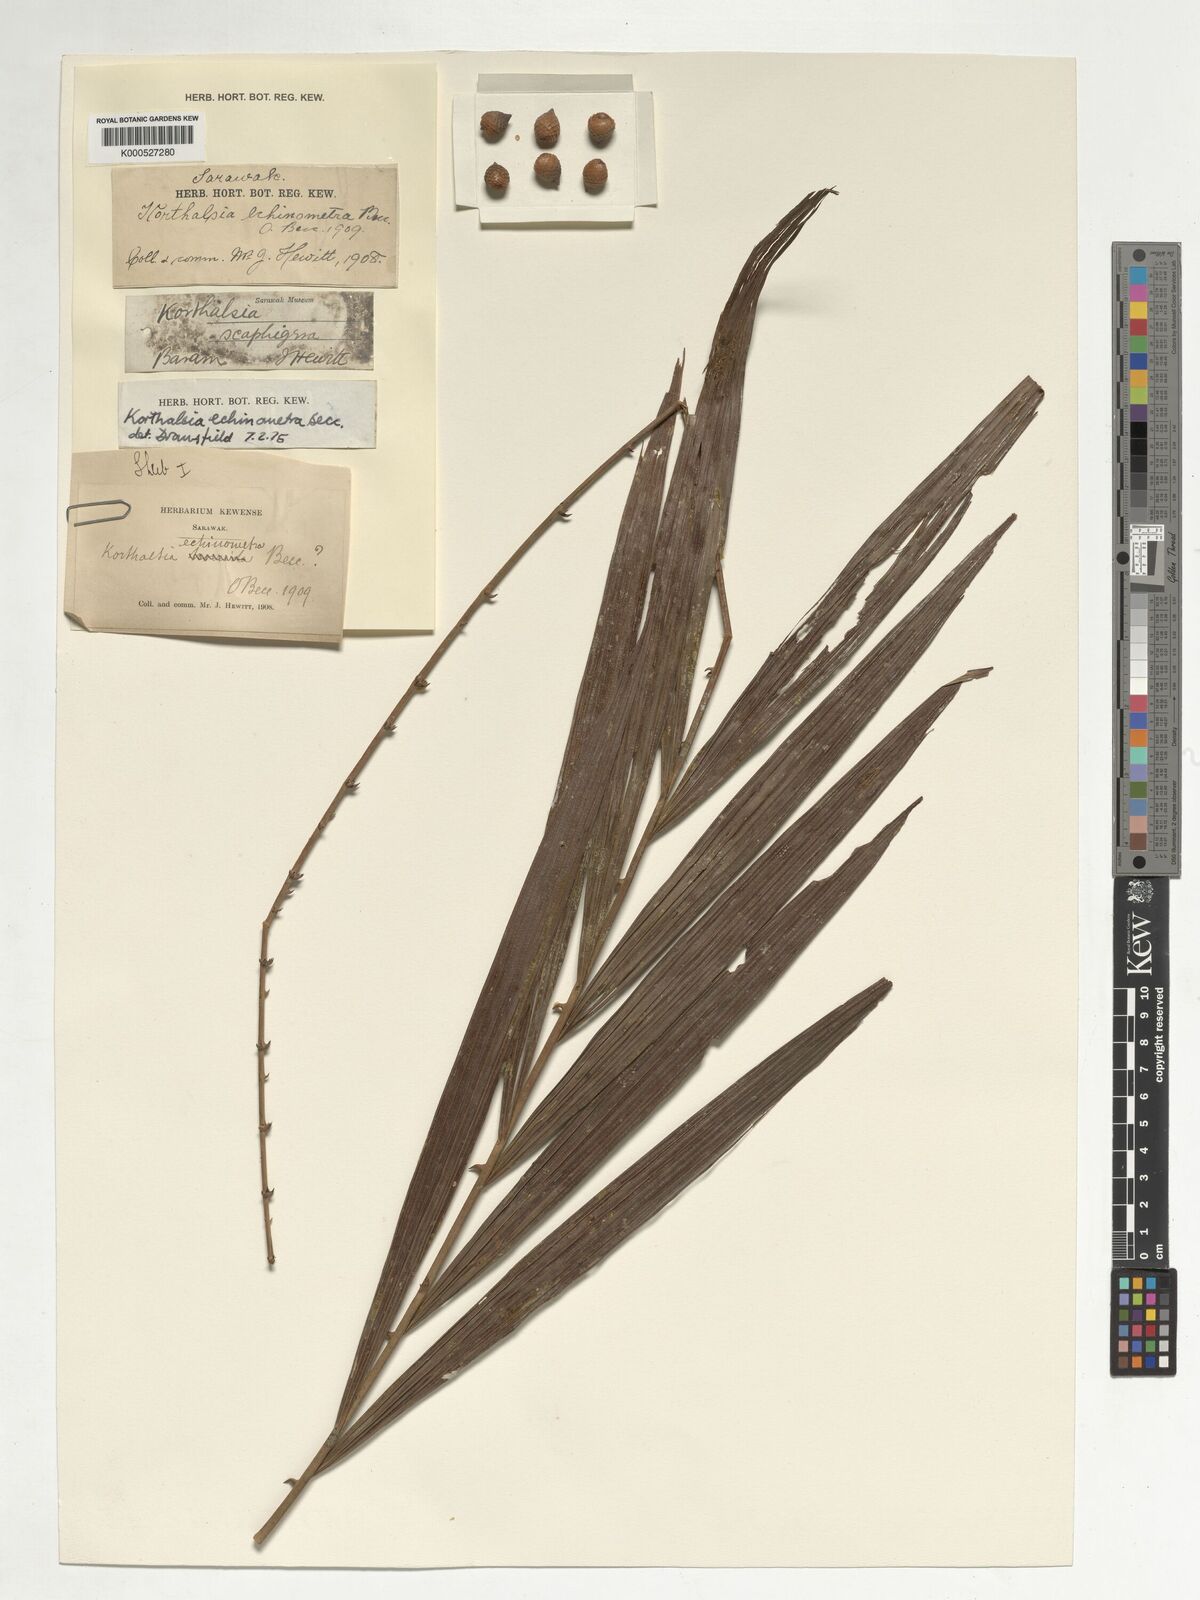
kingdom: Plantae
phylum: Tracheophyta
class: Liliopsida
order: Arecales
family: Arecaceae
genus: Korthalsia
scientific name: Korthalsia echinometra
